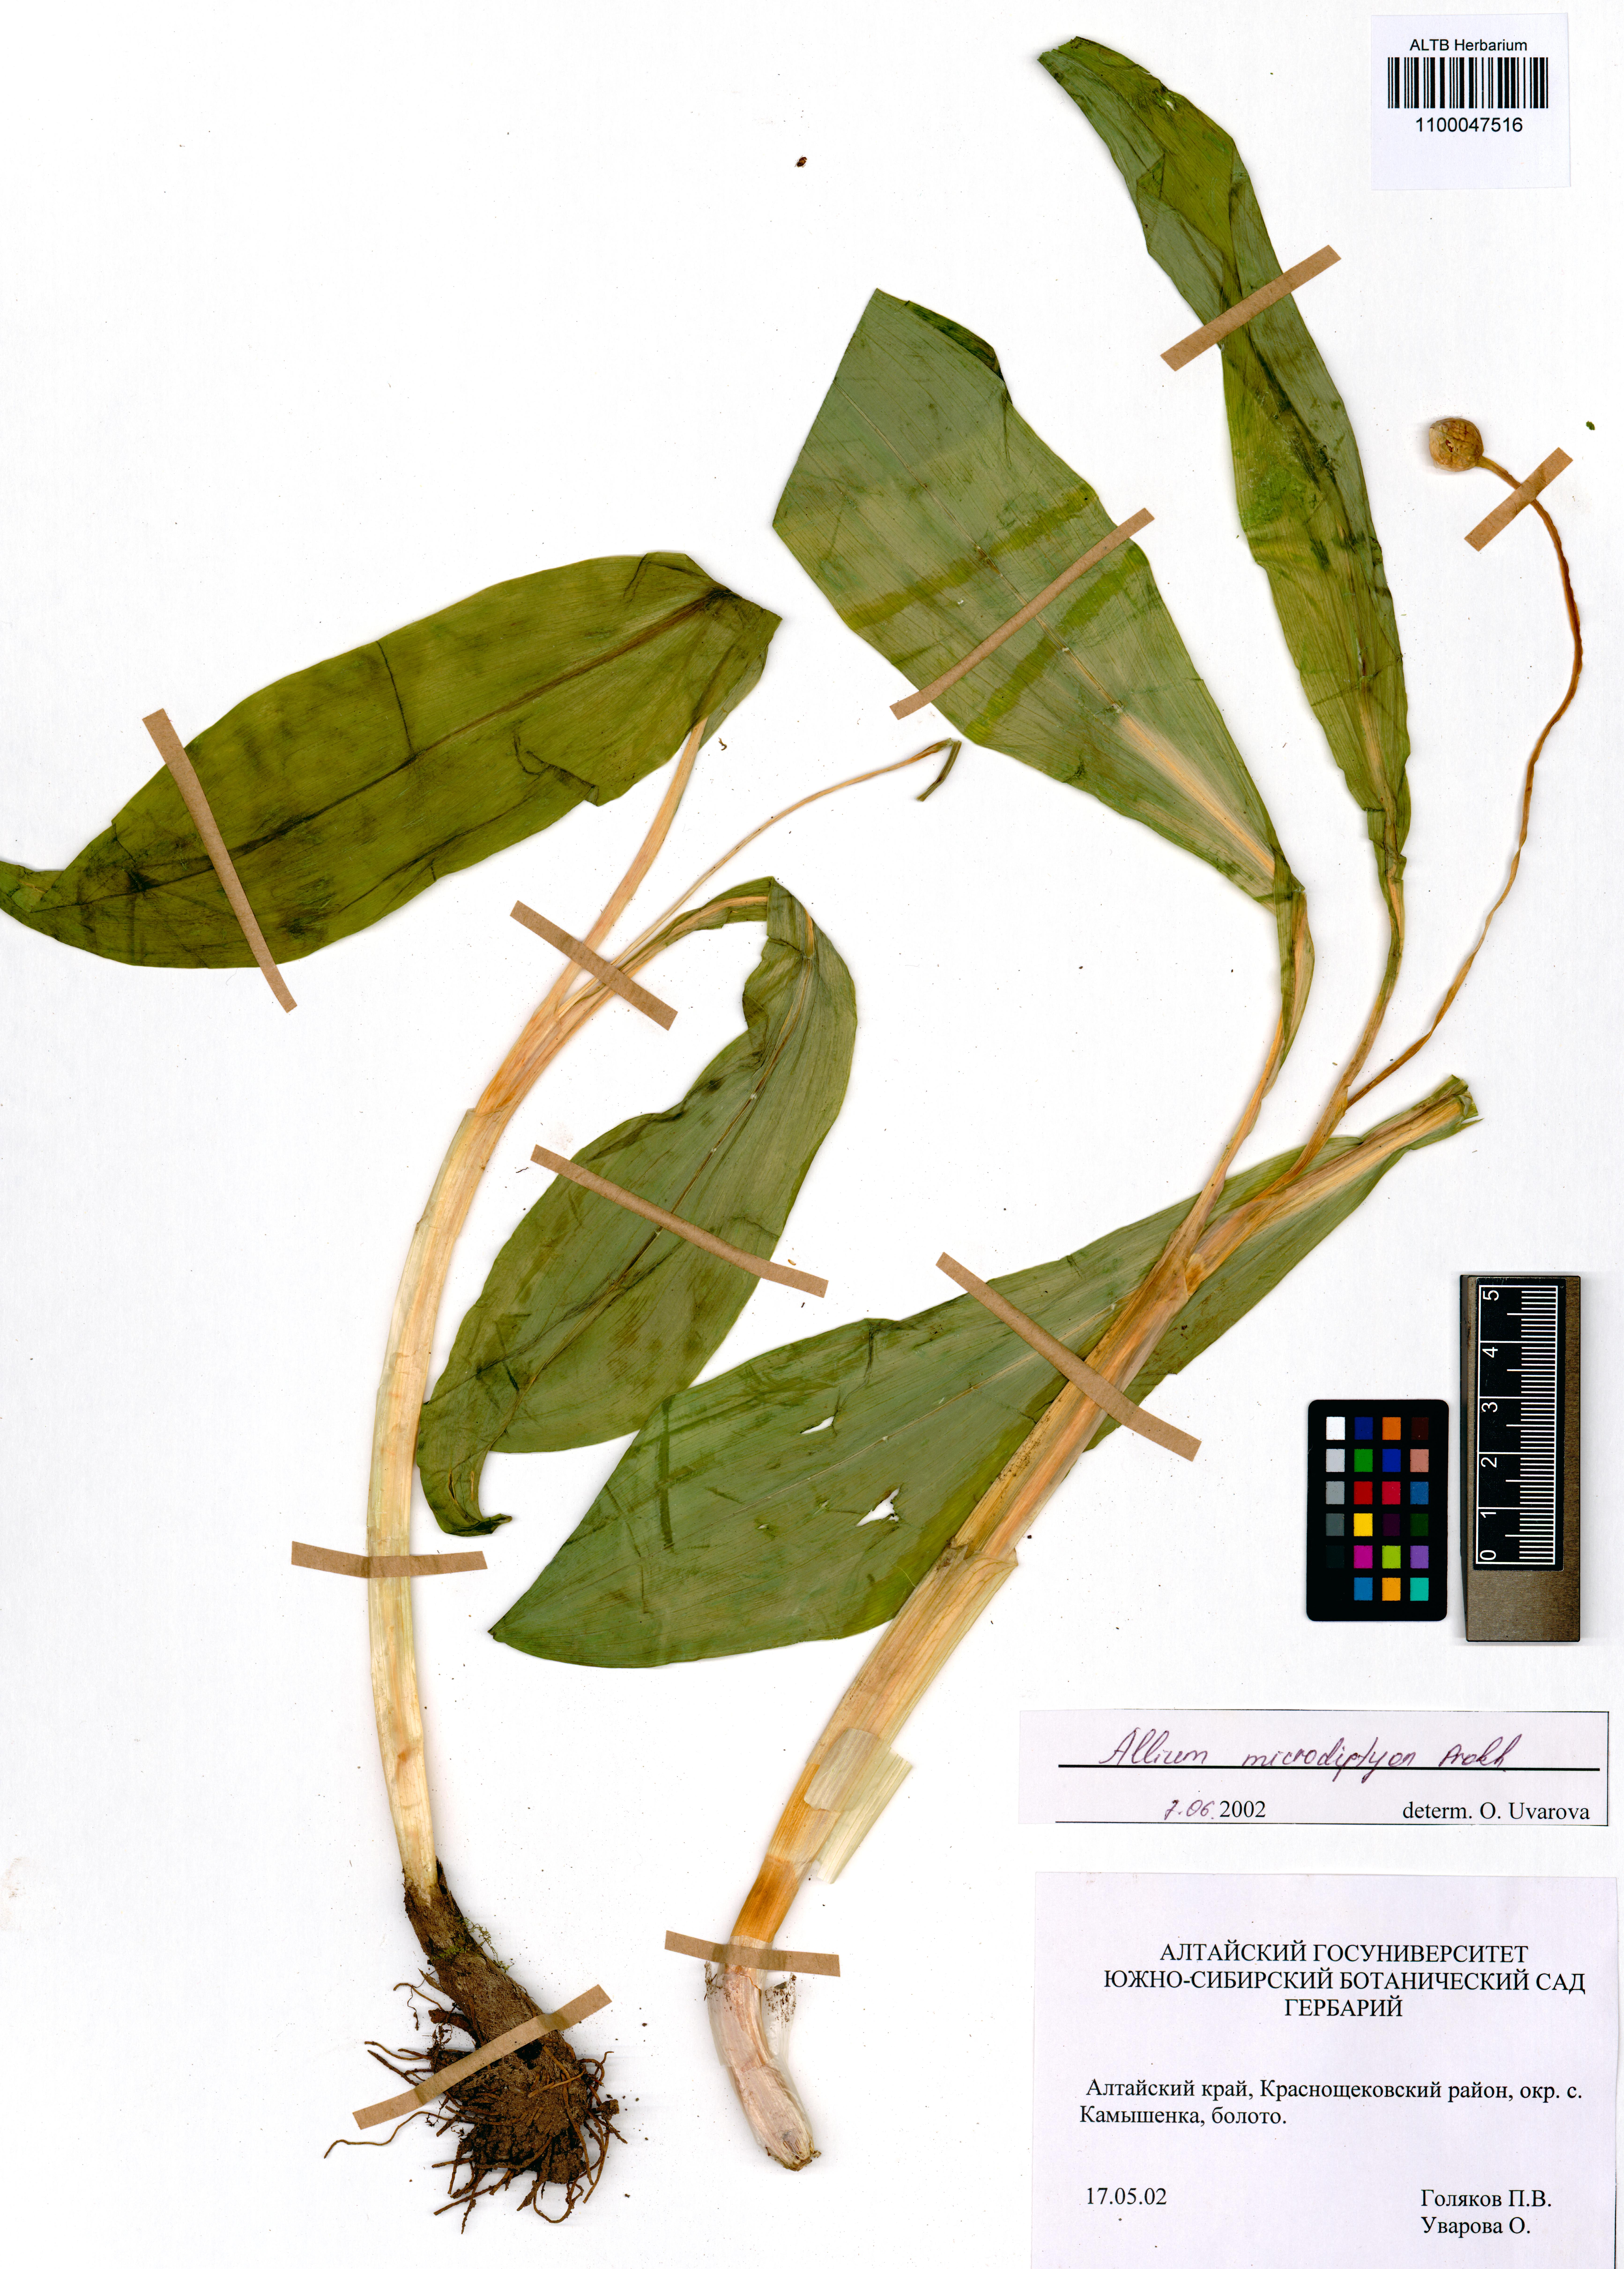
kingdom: Plantae
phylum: Tracheophyta
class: Liliopsida
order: Asparagales
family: Amaryllidaceae
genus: Allium
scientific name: Allium microdictyon
